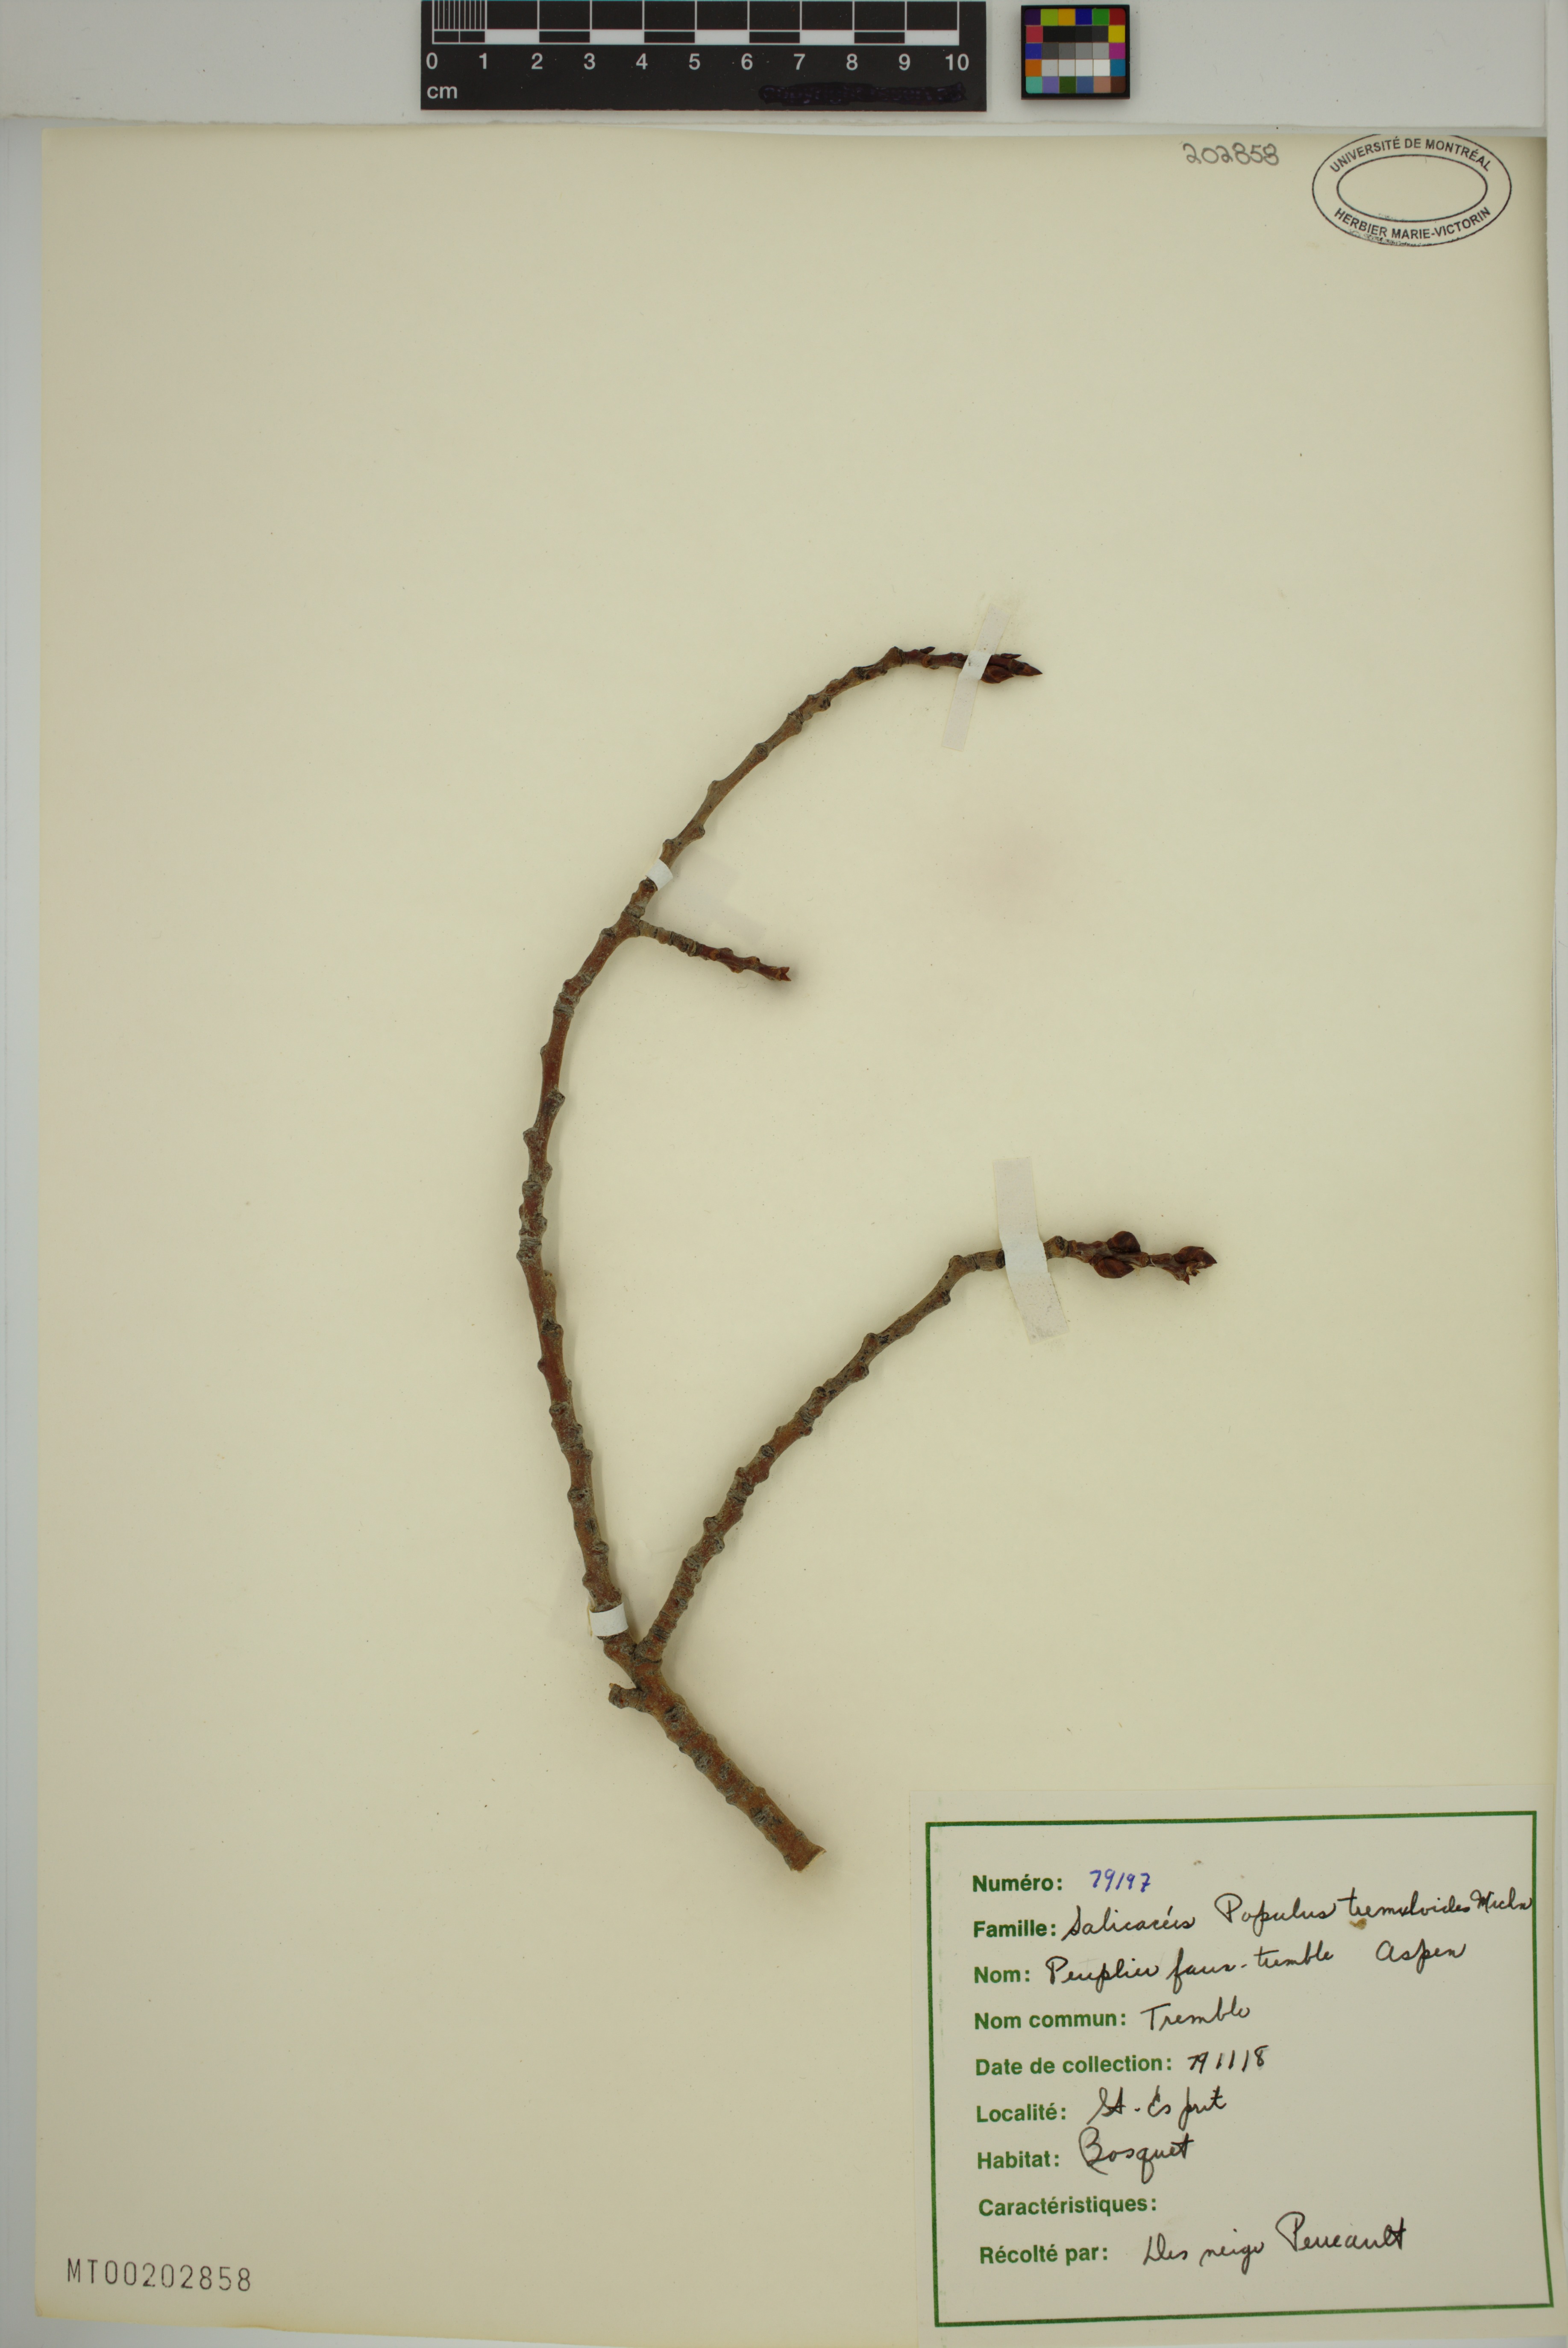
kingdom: Plantae
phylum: Tracheophyta
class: Magnoliopsida
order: Malpighiales
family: Salicaceae
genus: Populus
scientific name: Populus tremuloides
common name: Quaking aspen
